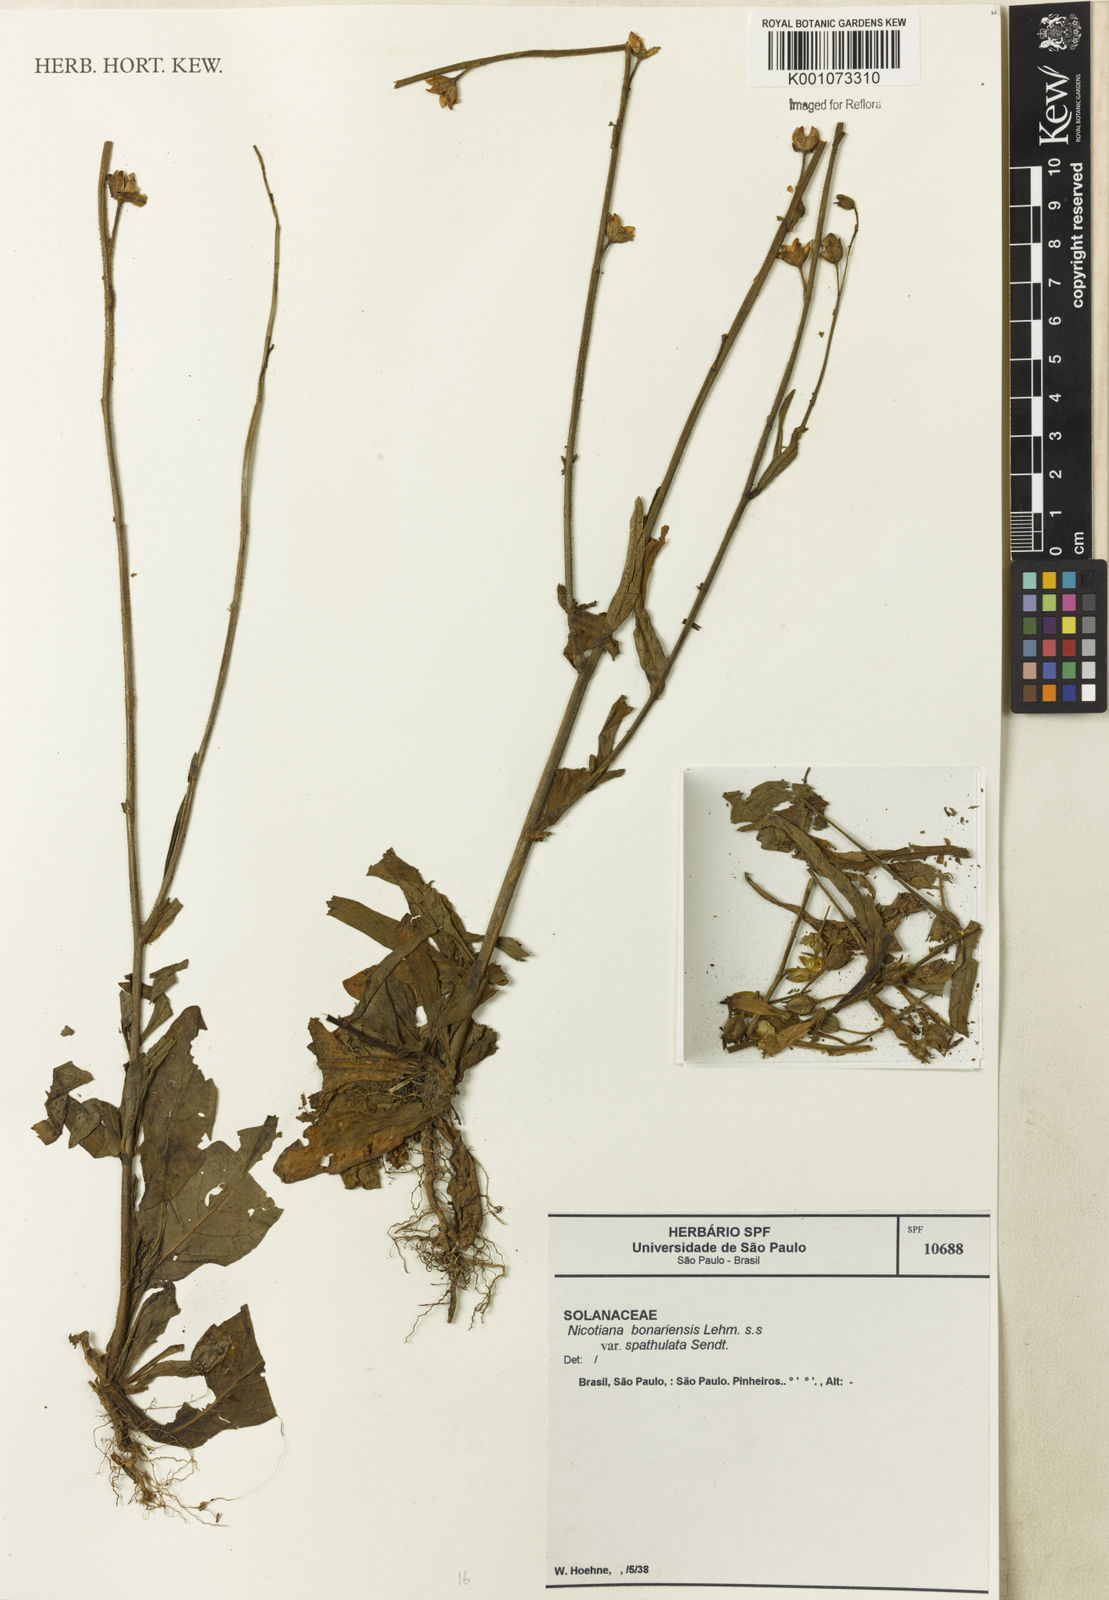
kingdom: Plantae
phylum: Tracheophyta
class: Magnoliopsida
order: Solanales
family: Solanaceae
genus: Nicotiana
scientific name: Nicotiana bonariensis
